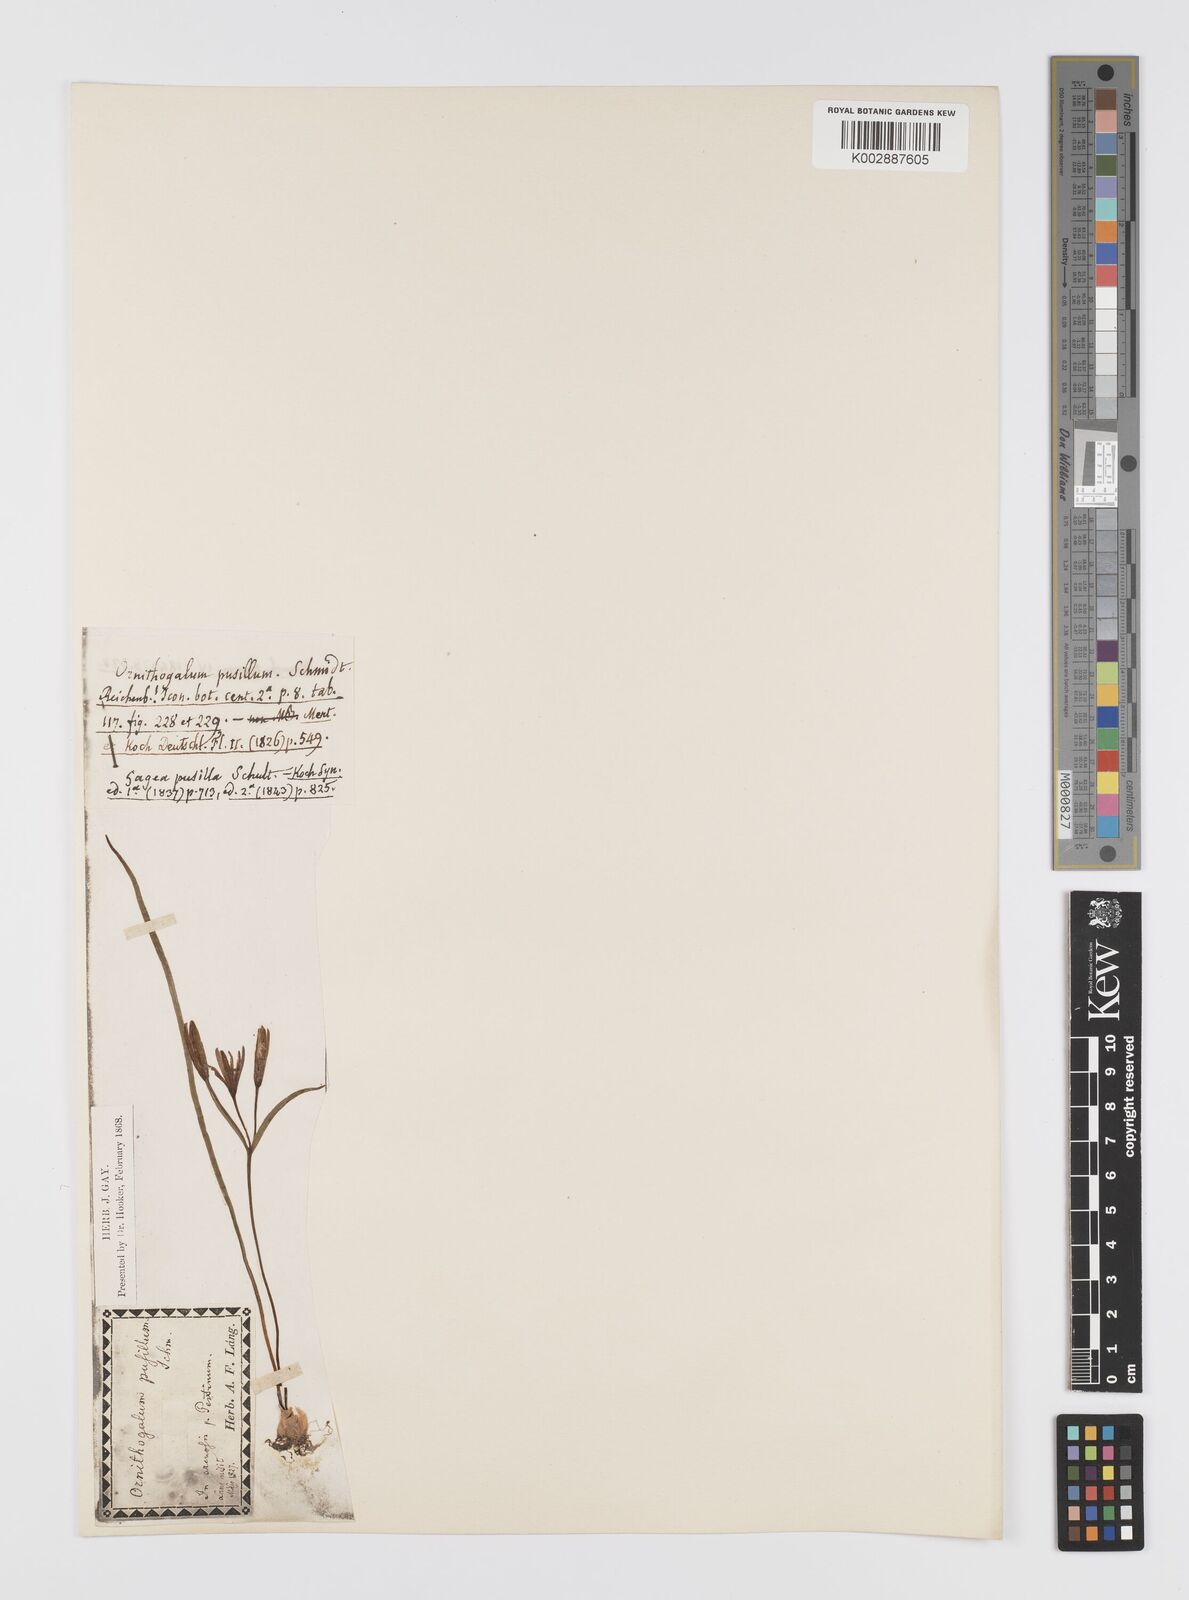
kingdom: Plantae
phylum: Tracheophyta
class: Liliopsida
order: Liliales
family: Liliaceae
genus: Gagea
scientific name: Gagea pusilla
